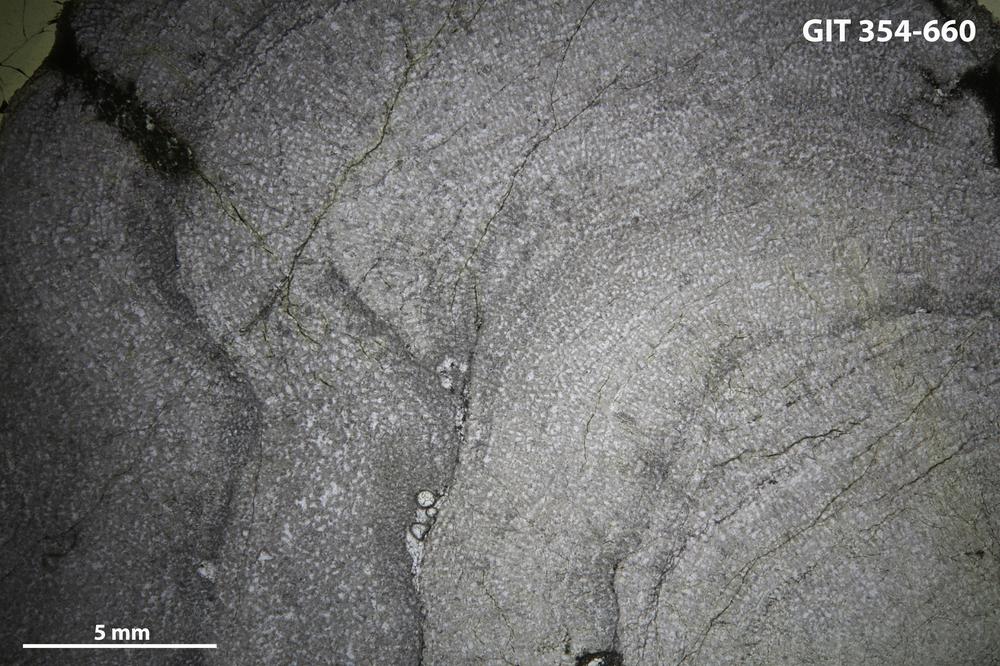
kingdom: Animalia
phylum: Porifera
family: Pseudolabechiidae
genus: Vikingia
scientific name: Vikingia
